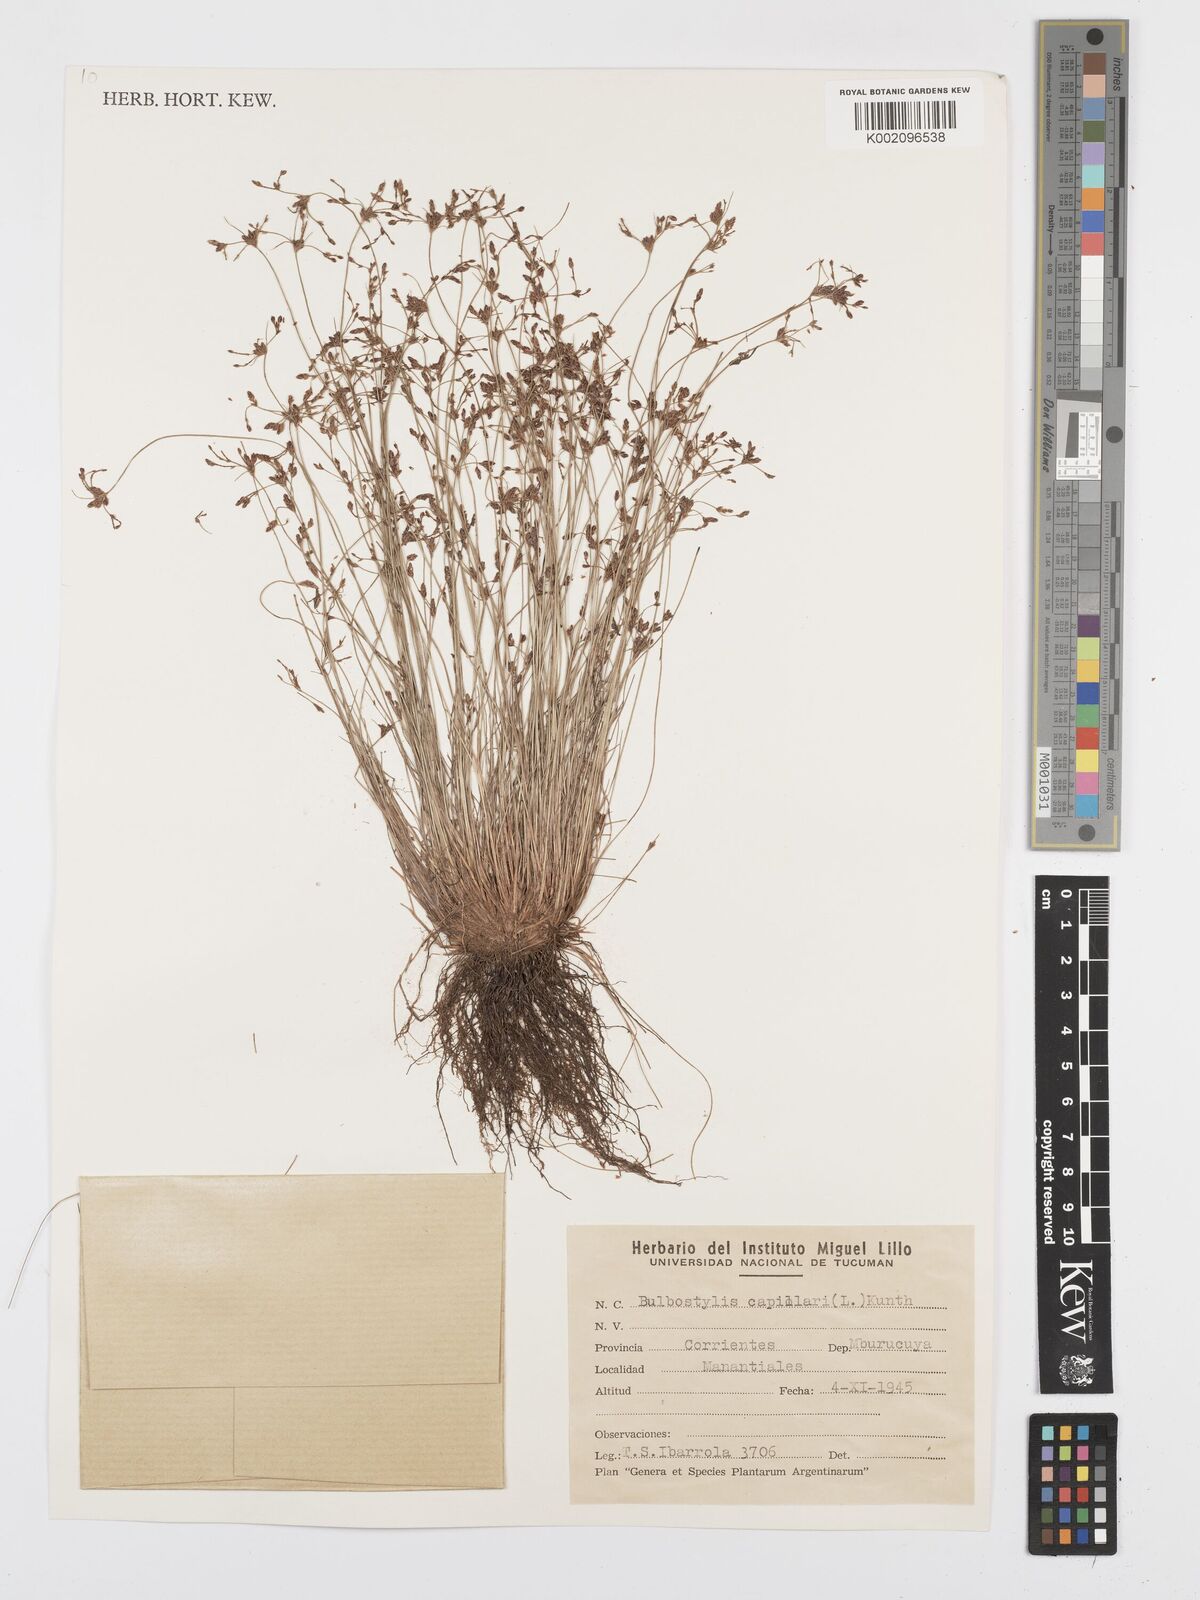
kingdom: Plantae
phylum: Tracheophyta
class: Liliopsida
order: Poales
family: Cyperaceae
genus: Bulbostylis
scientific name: Bulbostylis capillaris
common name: Densetuft hairsedge
